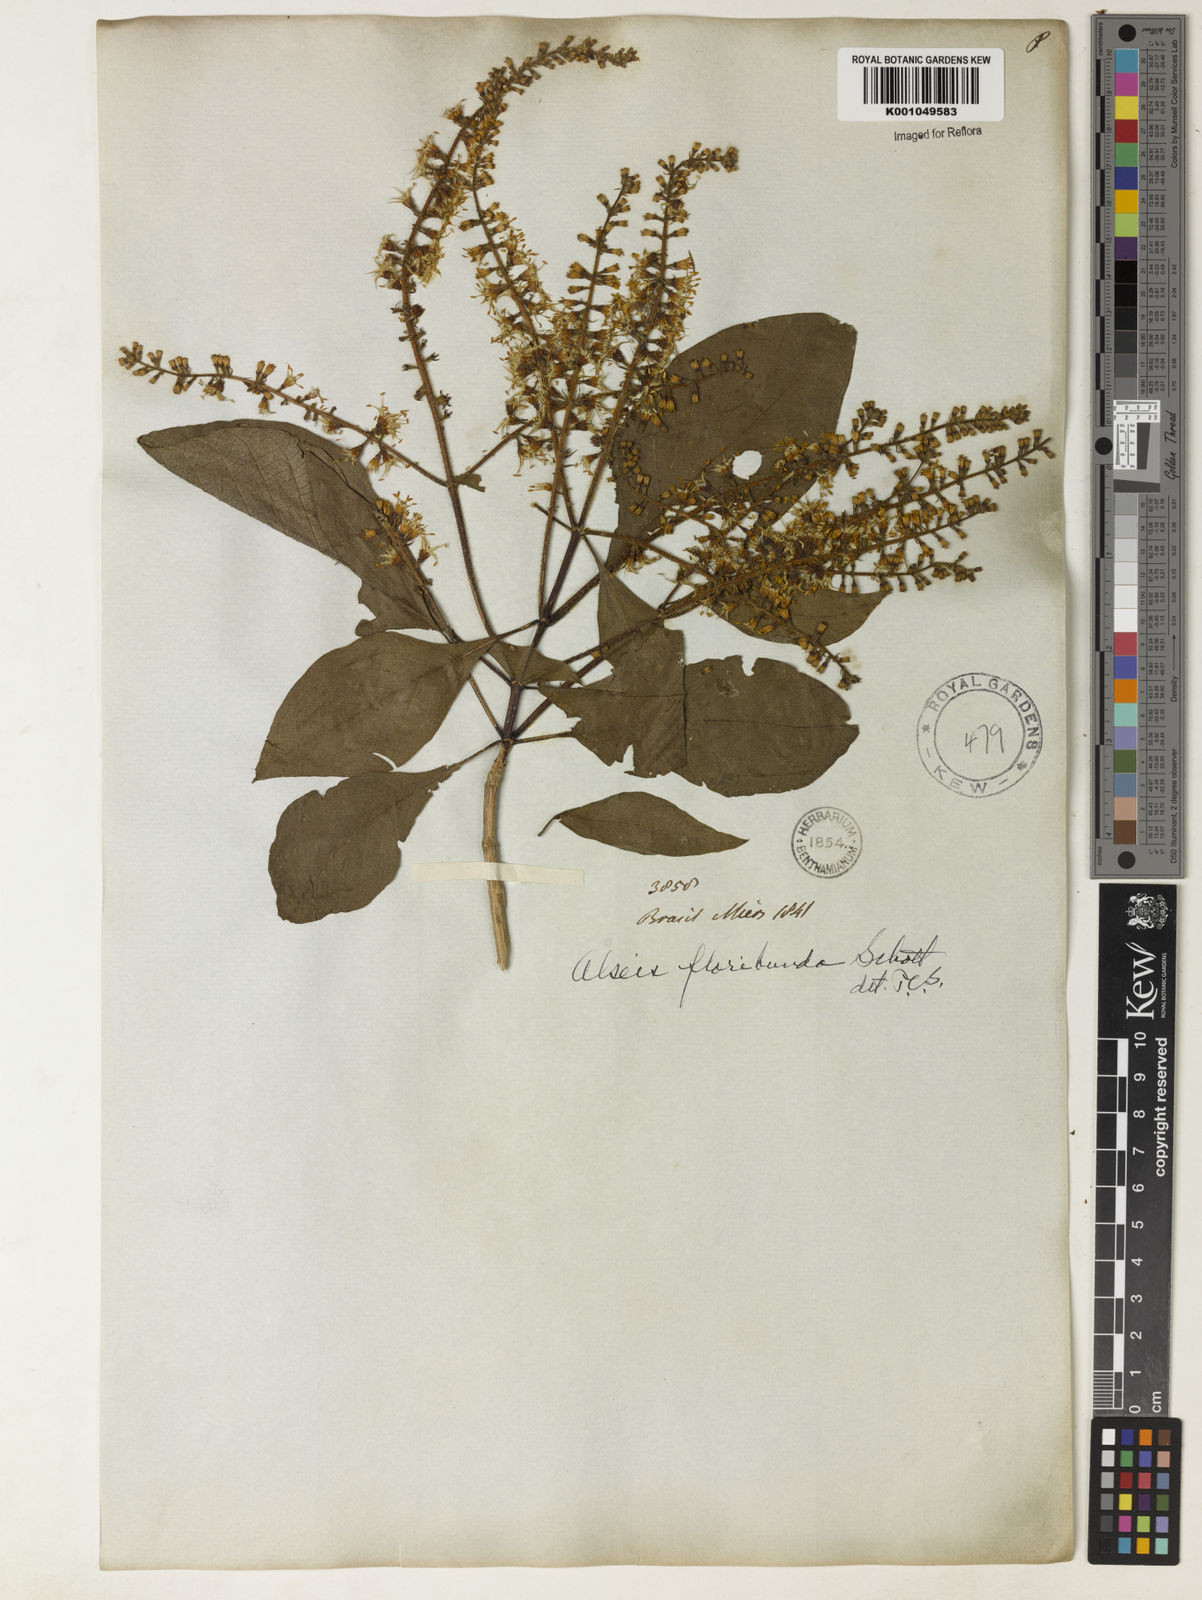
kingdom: Plantae
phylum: Tracheophyta
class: Magnoliopsida
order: Gentianales
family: Rubiaceae
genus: Alseis
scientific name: Alseis floribunda
